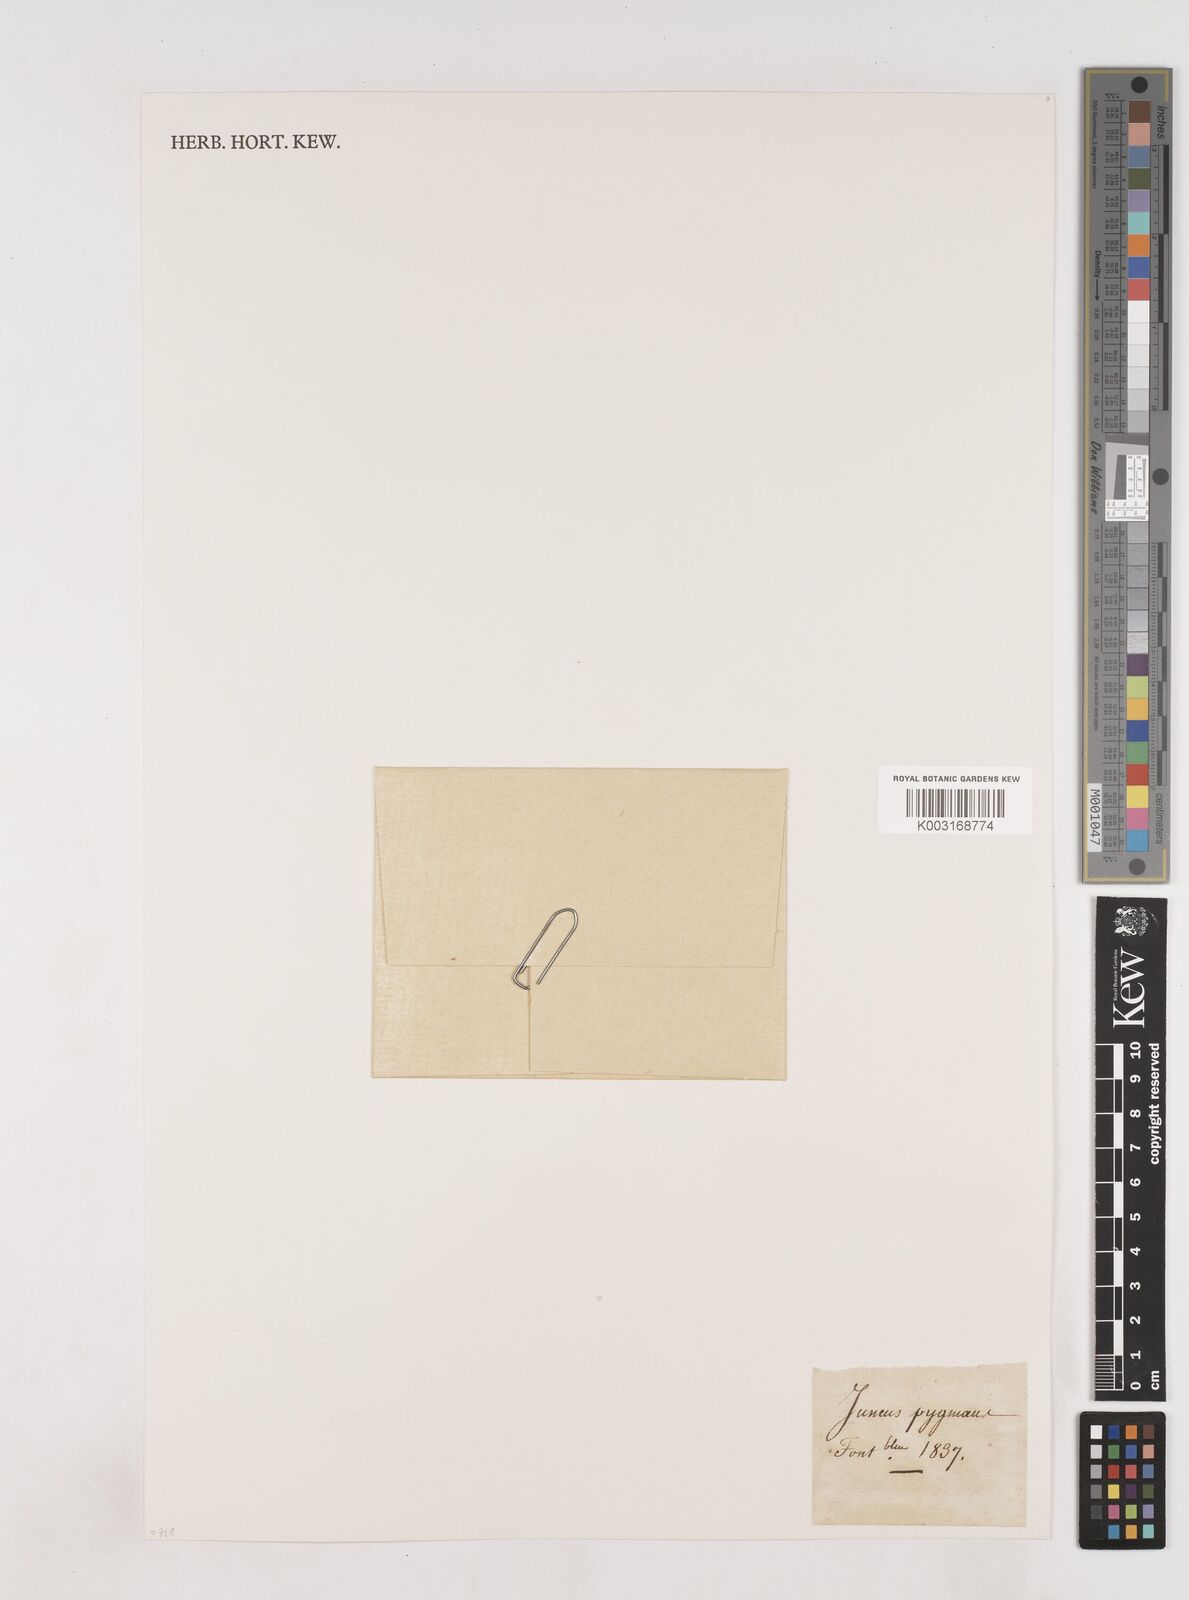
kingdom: Plantae
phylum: Tracheophyta
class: Liliopsida
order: Poales
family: Juncaceae
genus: Juncus
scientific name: Juncus pygmaeus
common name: Pigmy rush
